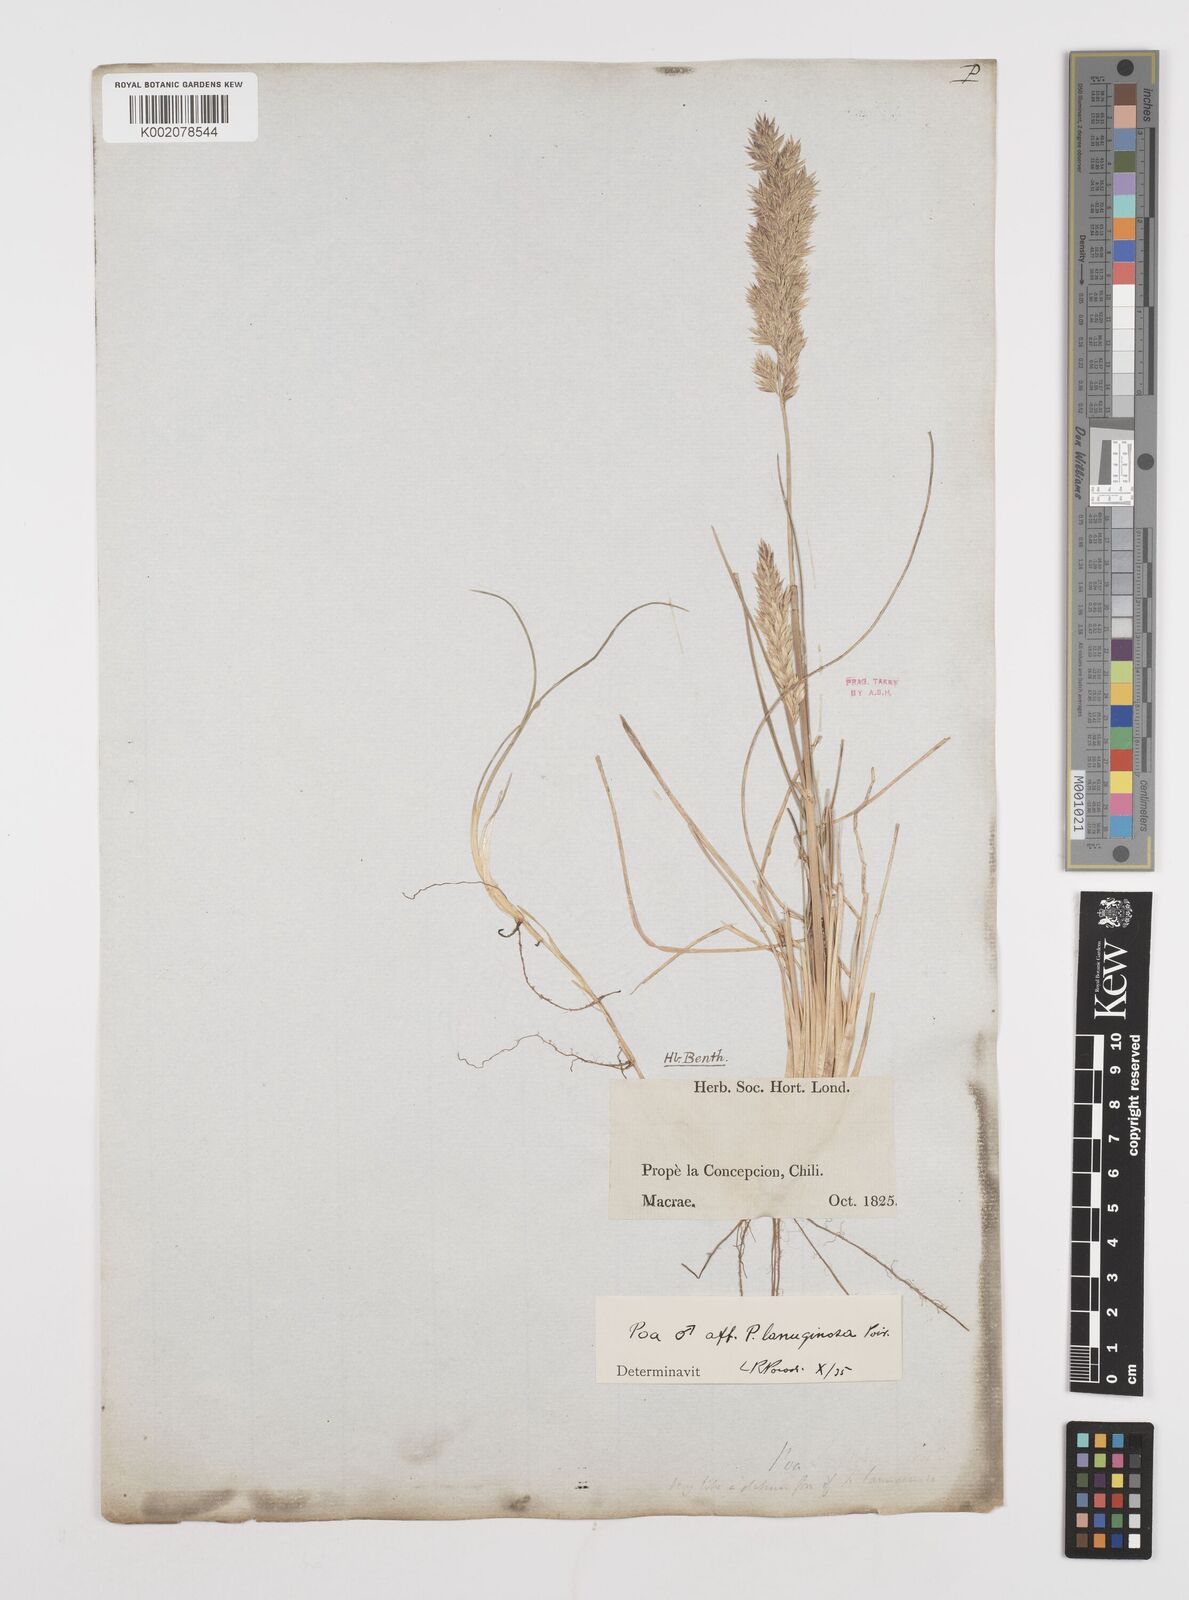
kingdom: Plantae
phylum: Tracheophyta
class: Liliopsida
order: Poales
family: Poaceae
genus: Poa
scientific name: Poa lanuginosa
